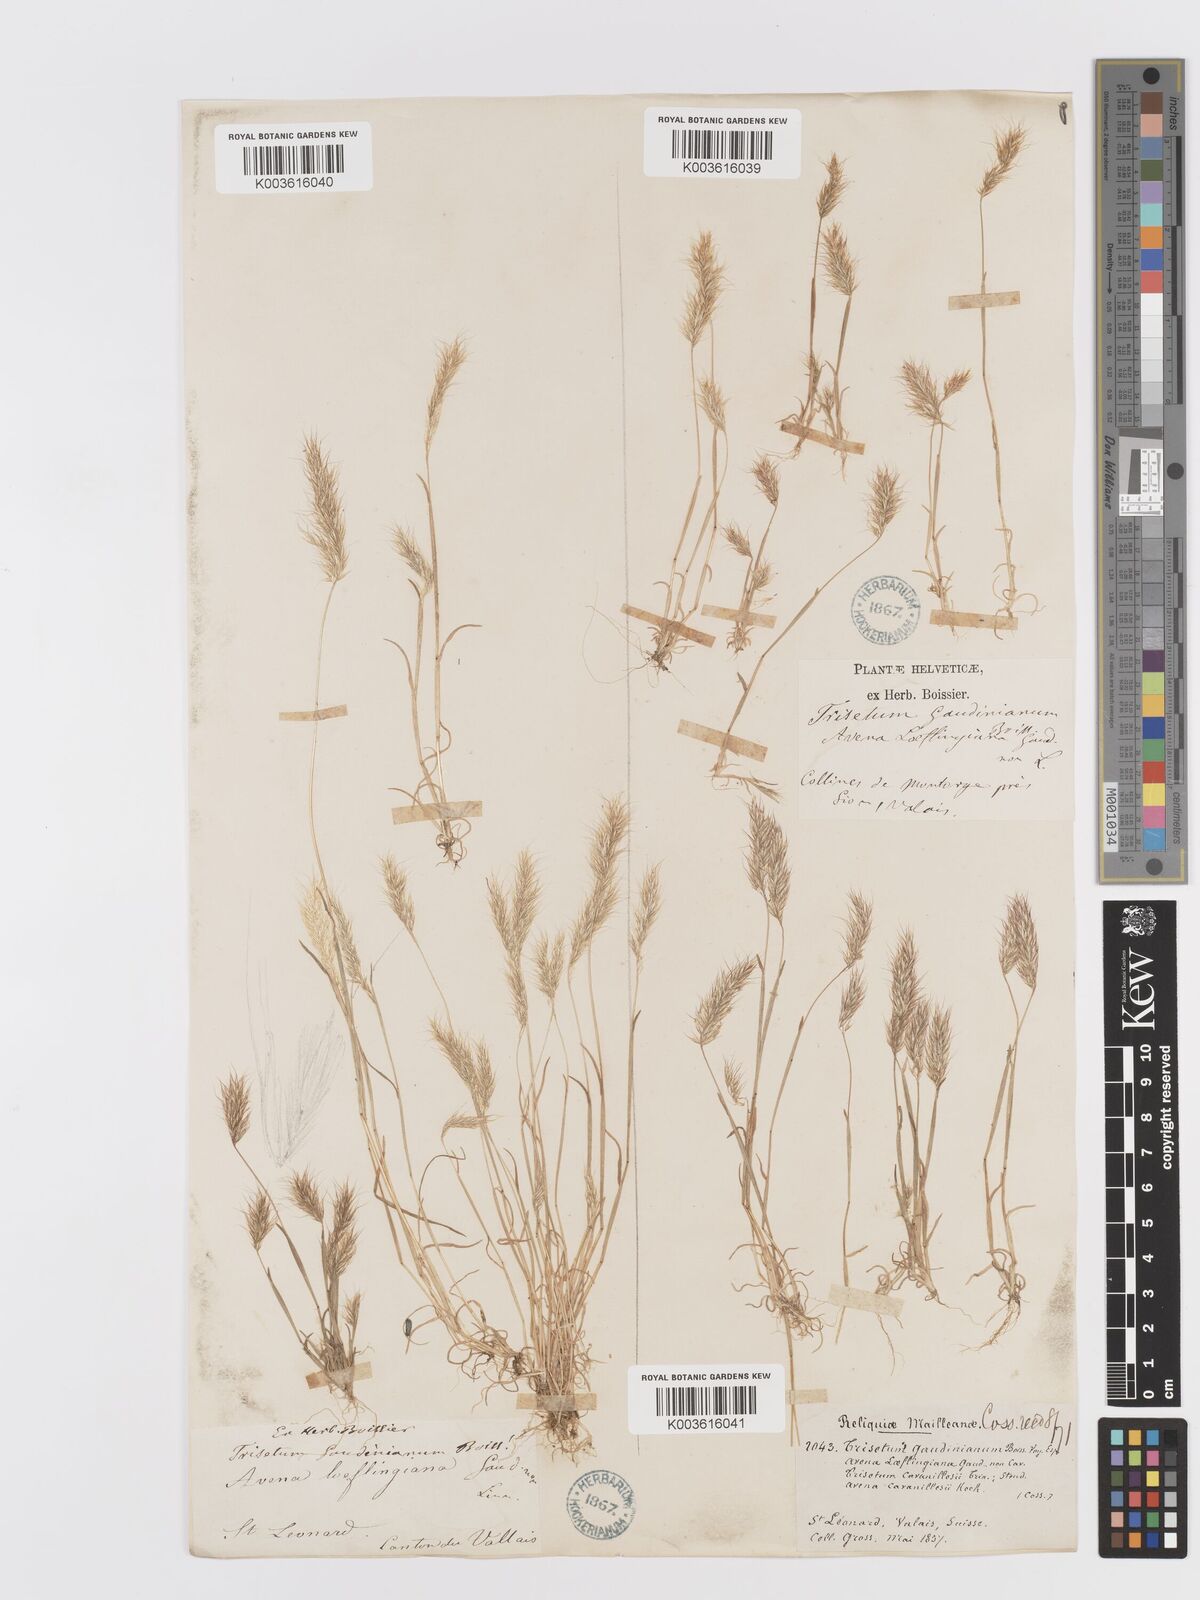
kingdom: Plantae
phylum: Tracheophyta
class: Liliopsida
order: Poales
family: Poaceae
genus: Trisetaria
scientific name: Trisetaria loeflingiana
